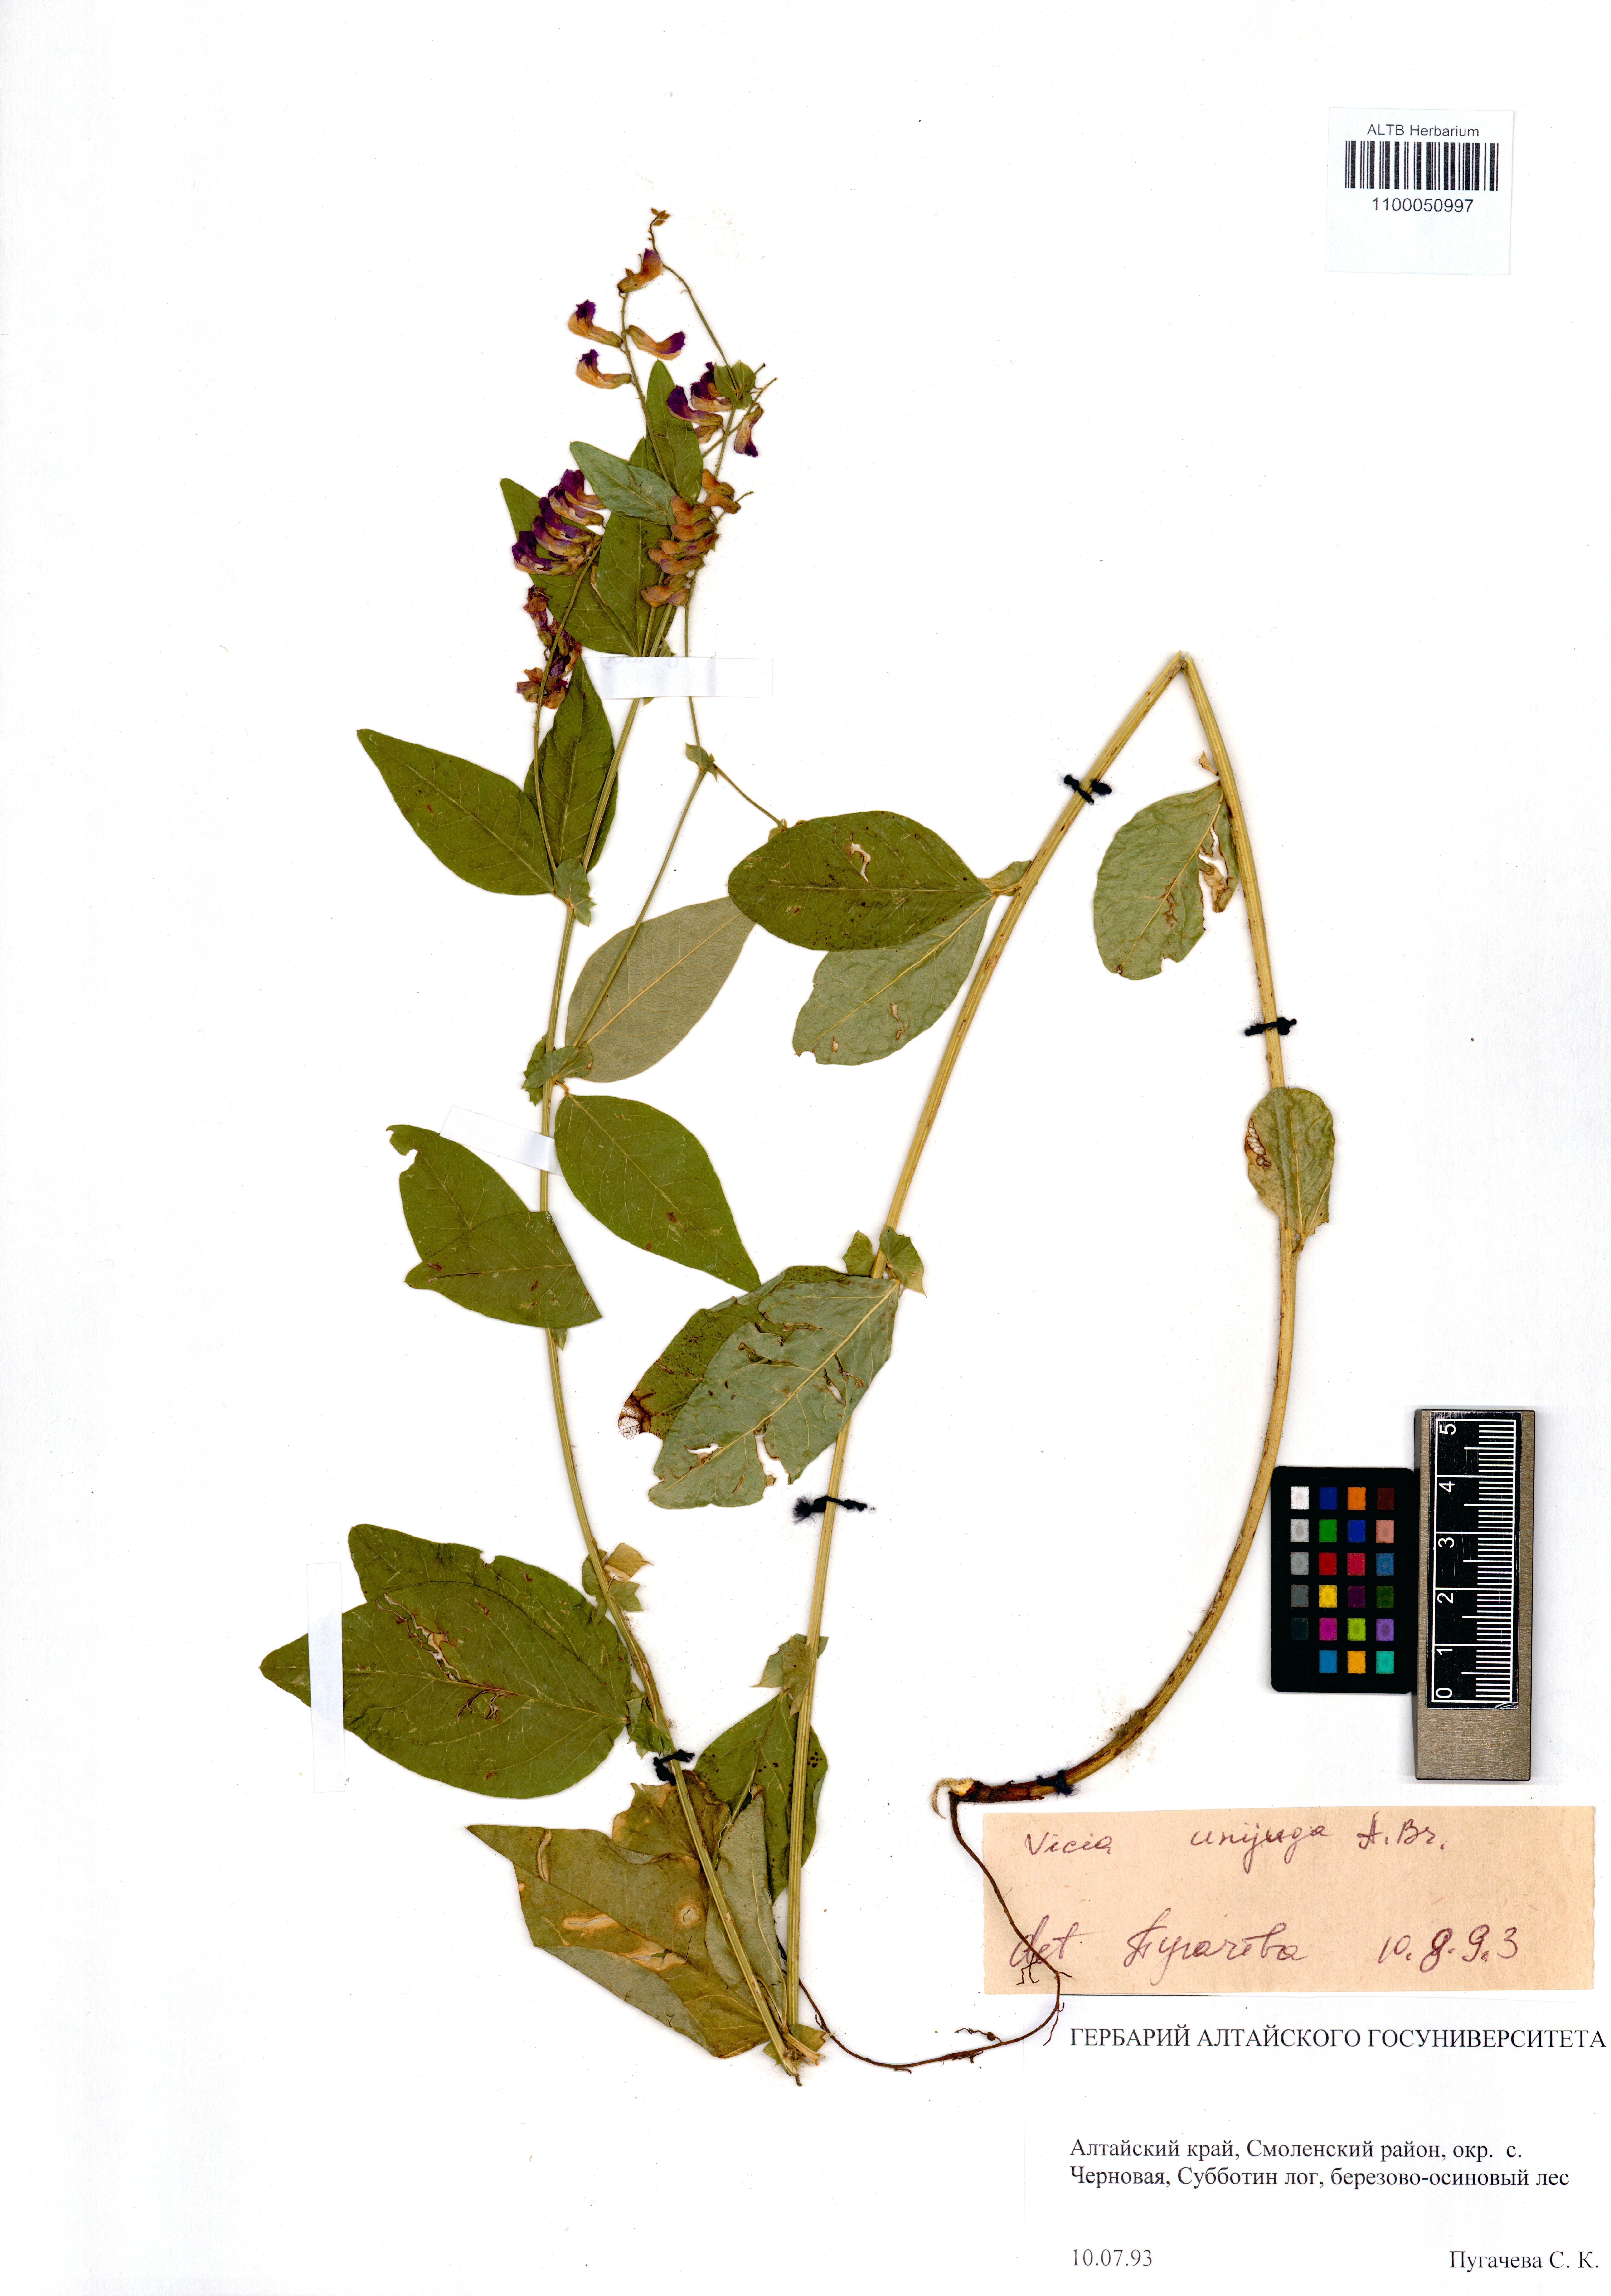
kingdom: Plantae
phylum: Tracheophyta
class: Magnoliopsida
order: Fabales
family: Fabaceae
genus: Vicia
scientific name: Vicia unijuga
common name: Two-leaf vetch
